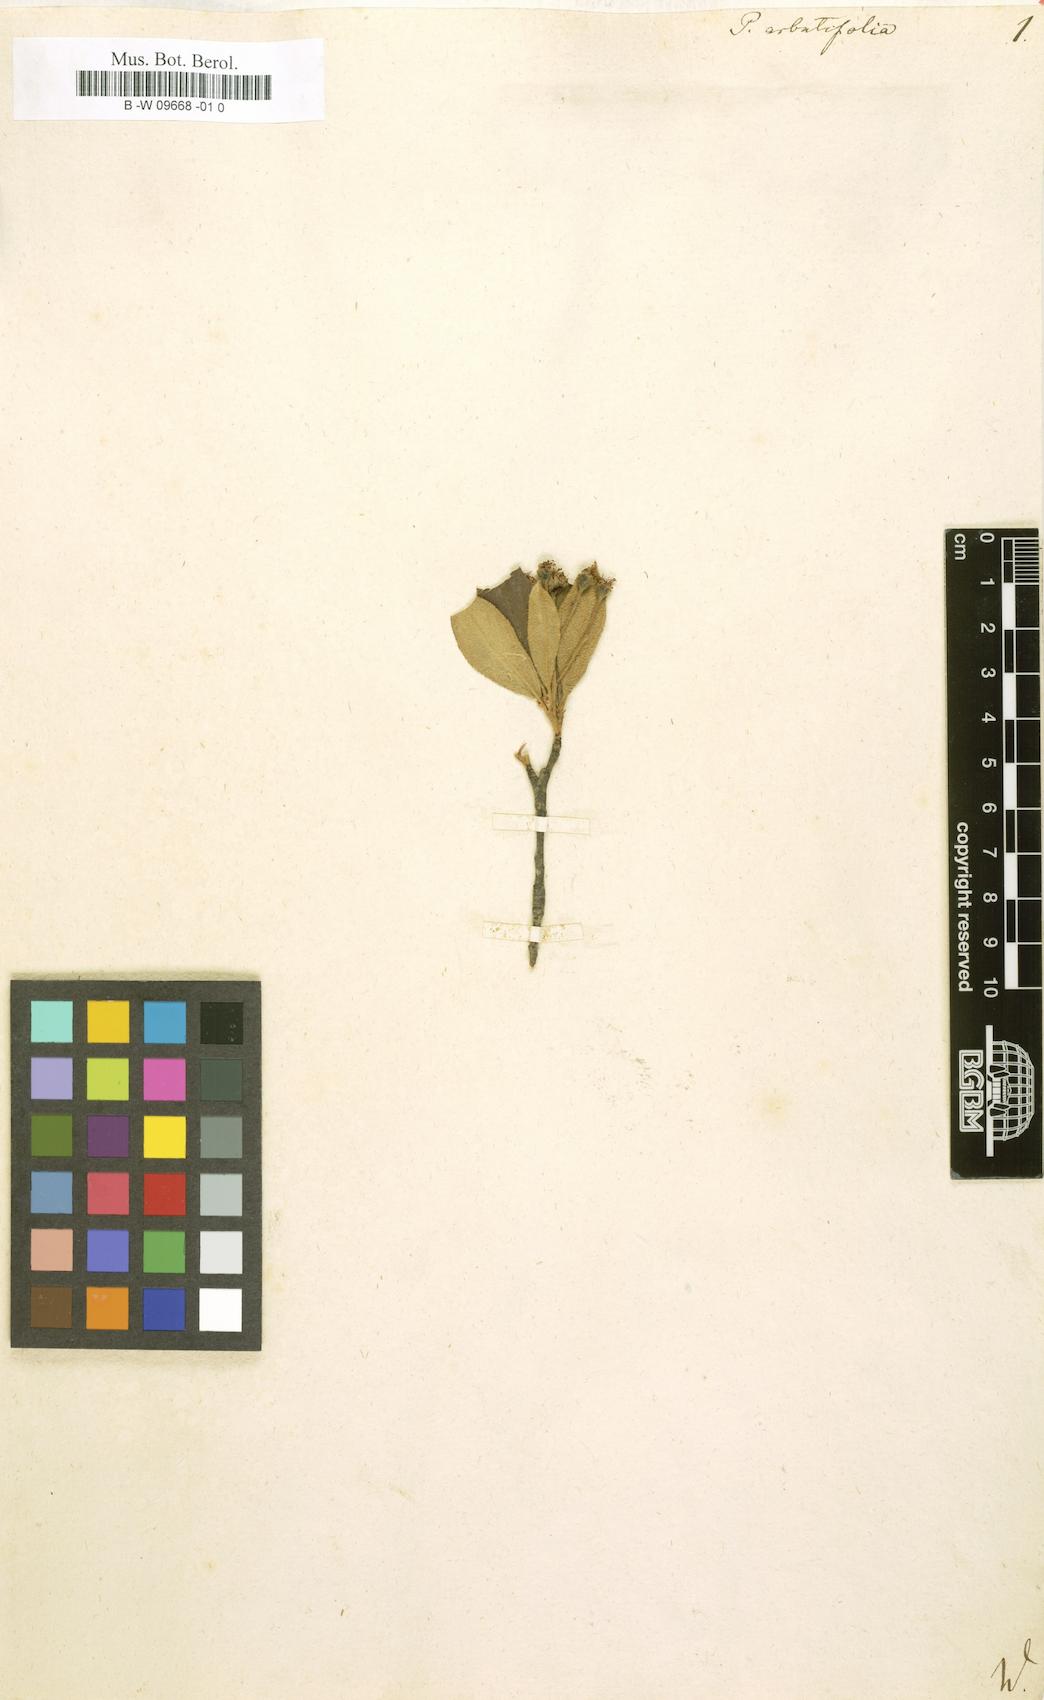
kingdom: Plantae
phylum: Tracheophyta
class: Magnoliopsida
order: Rosales
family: Rosaceae
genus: Aronia
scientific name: Aronia arbutifolia
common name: Red chokeberry
